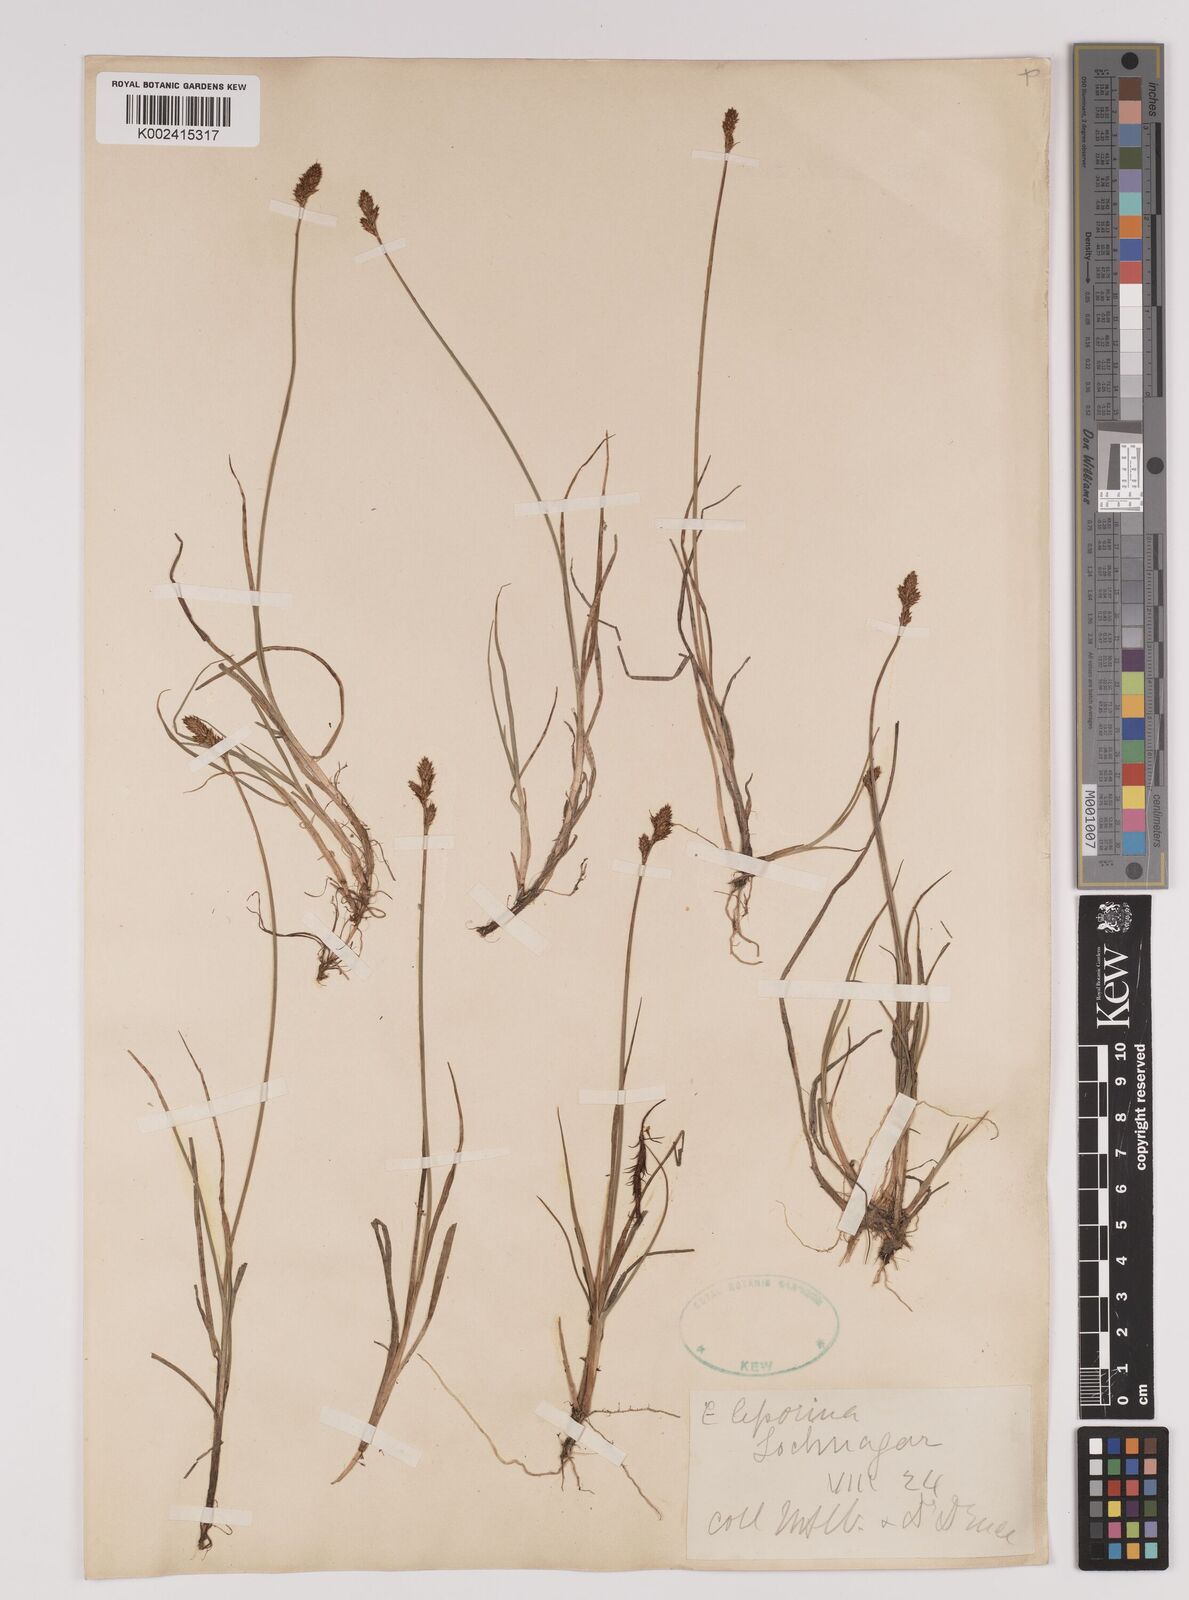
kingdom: Plantae
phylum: Tracheophyta
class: Liliopsida
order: Poales
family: Cyperaceae
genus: Carex
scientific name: Carex pulicaris
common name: Flea sedge
